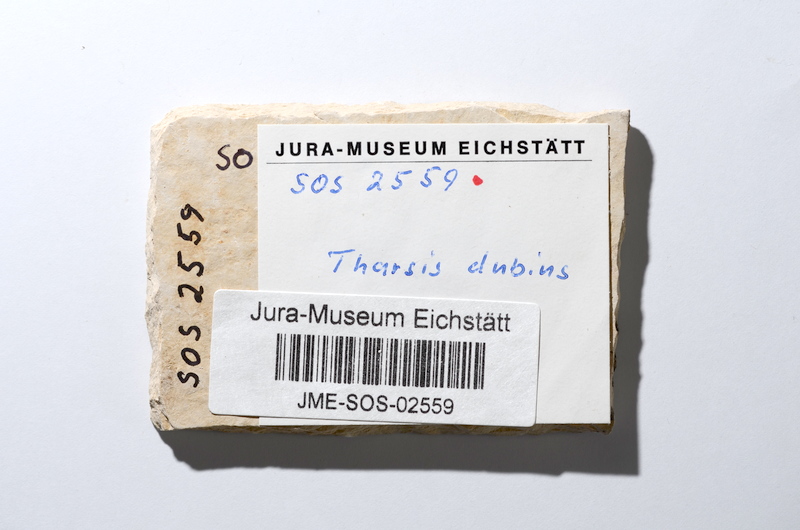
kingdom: Animalia
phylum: Chordata
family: Ascalaboidae
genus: Tharsis
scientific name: Tharsis dubius
